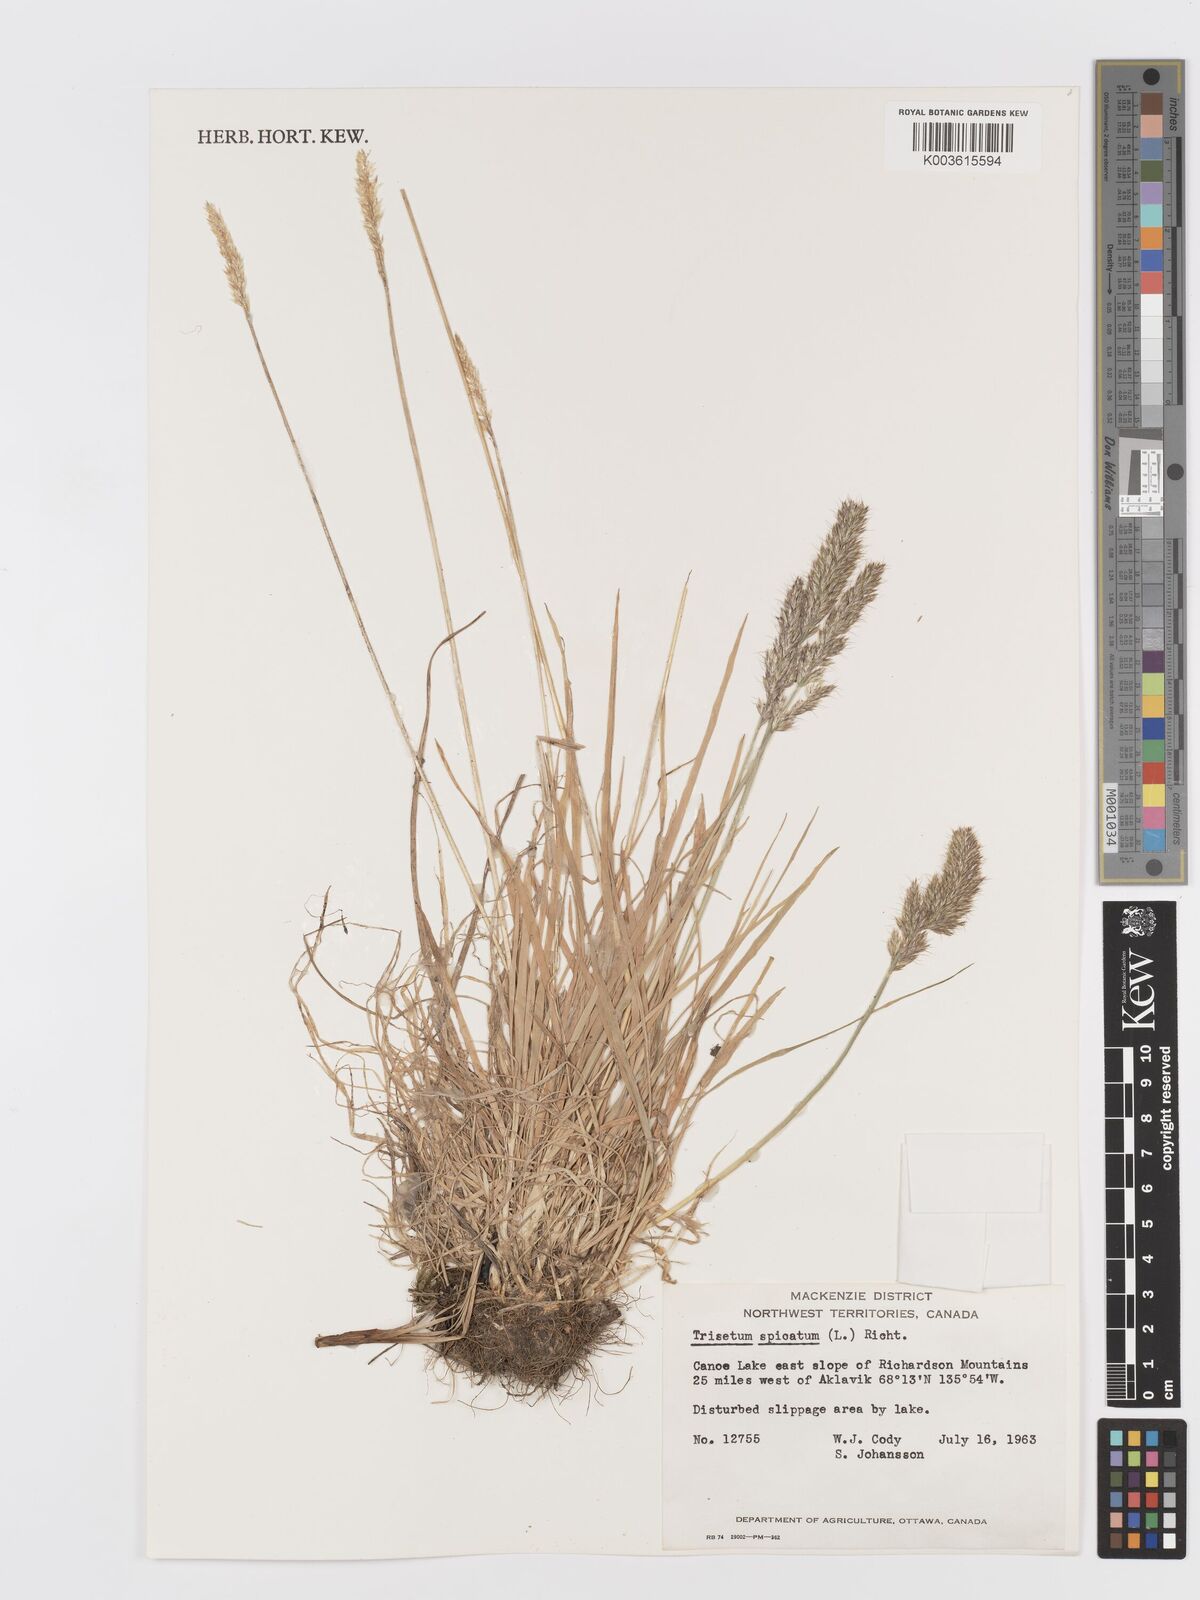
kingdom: Plantae
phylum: Tracheophyta
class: Liliopsida
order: Poales
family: Poaceae
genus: Koeleria
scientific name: Koeleria spicata
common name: Mountain trisetum
